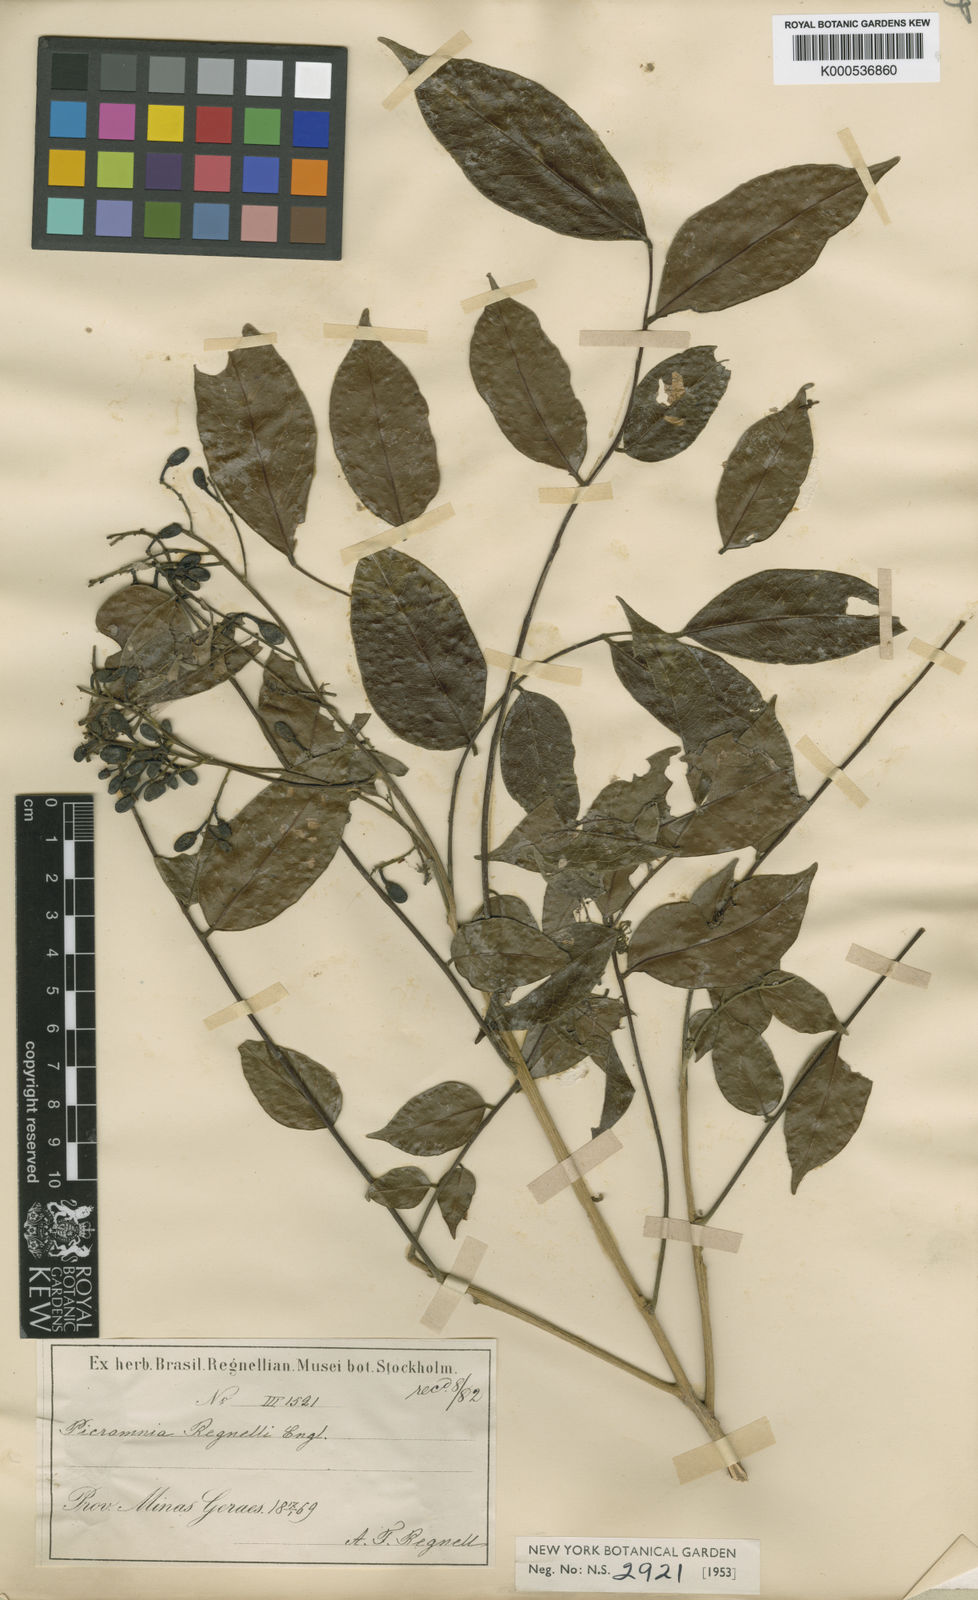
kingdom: Plantae
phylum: Tracheophyta
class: Magnoliopsida
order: Picramniales
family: Picramniaceae
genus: Picramnia
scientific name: Picramnia
